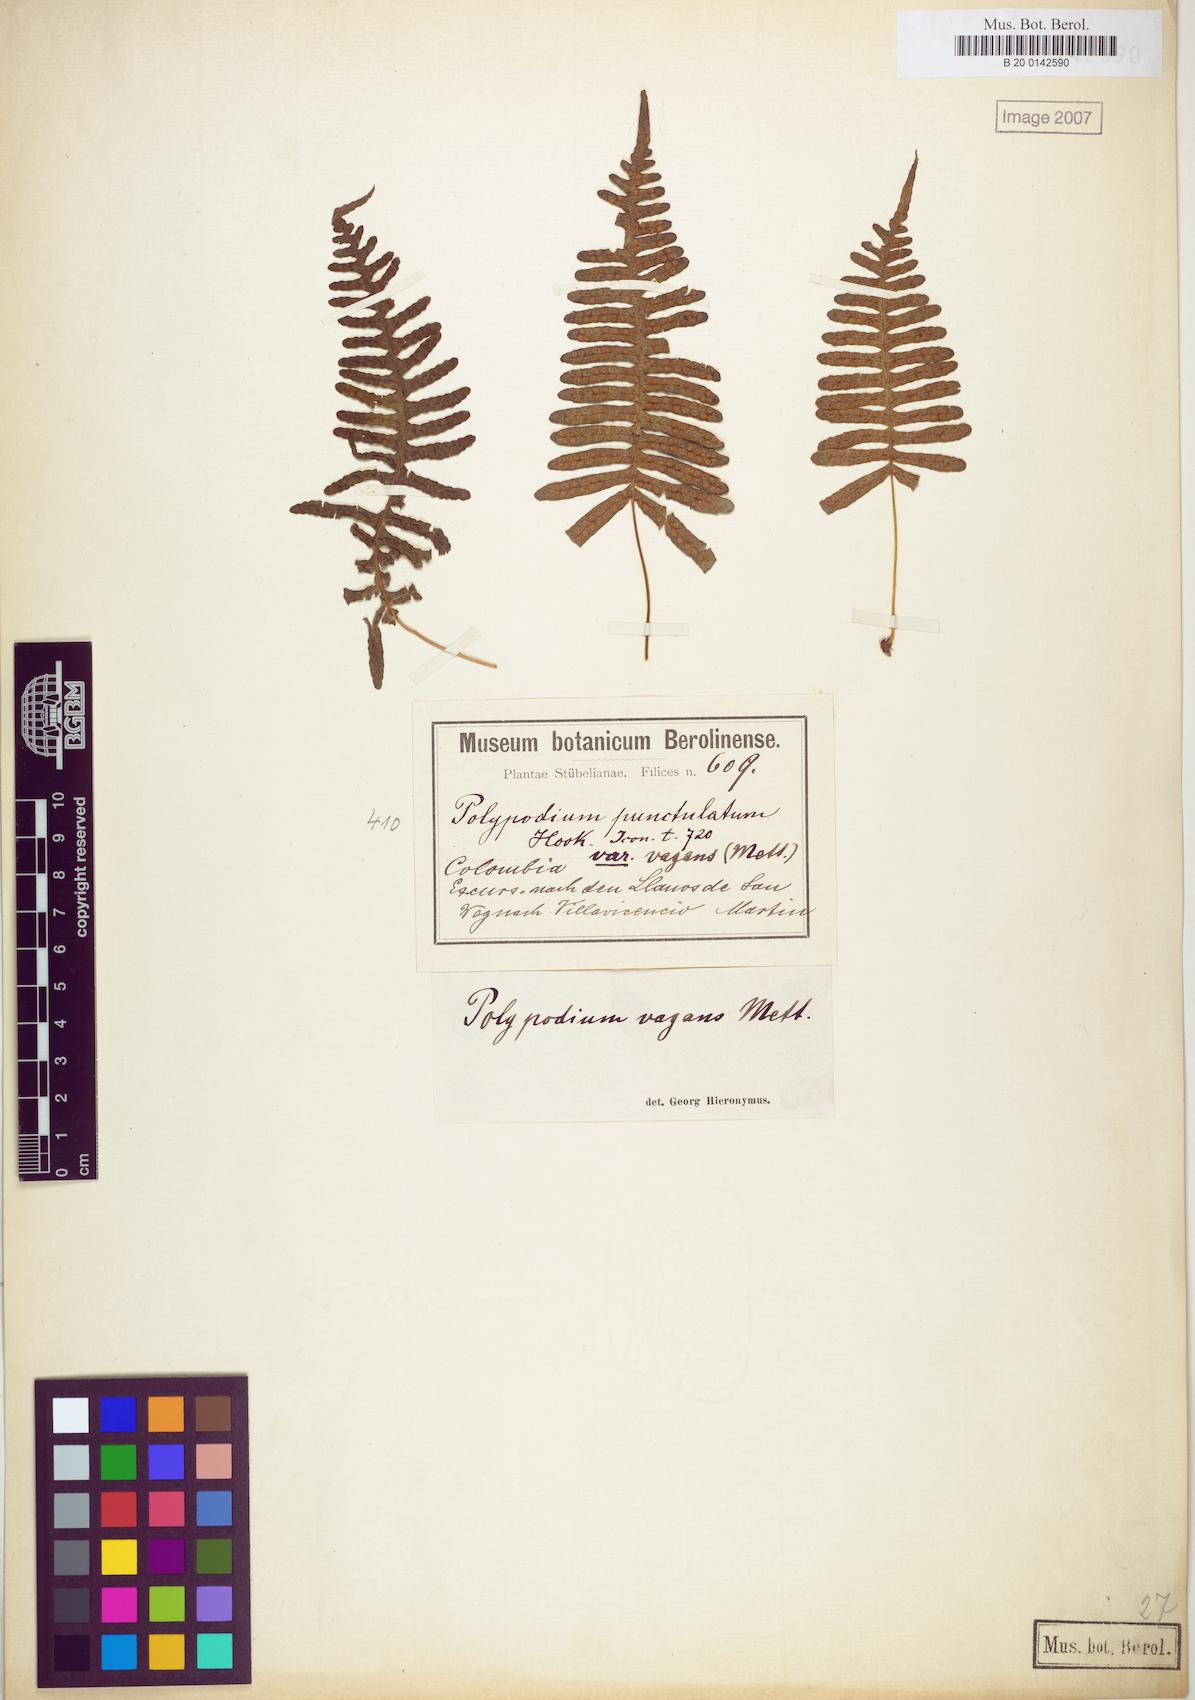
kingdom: Plantae
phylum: Tracheophyta
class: Polypodiopsida
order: Polypodiales
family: Polypodiaceae
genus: Serpocaulon
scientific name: Serpocaulon eleutherophlebium
